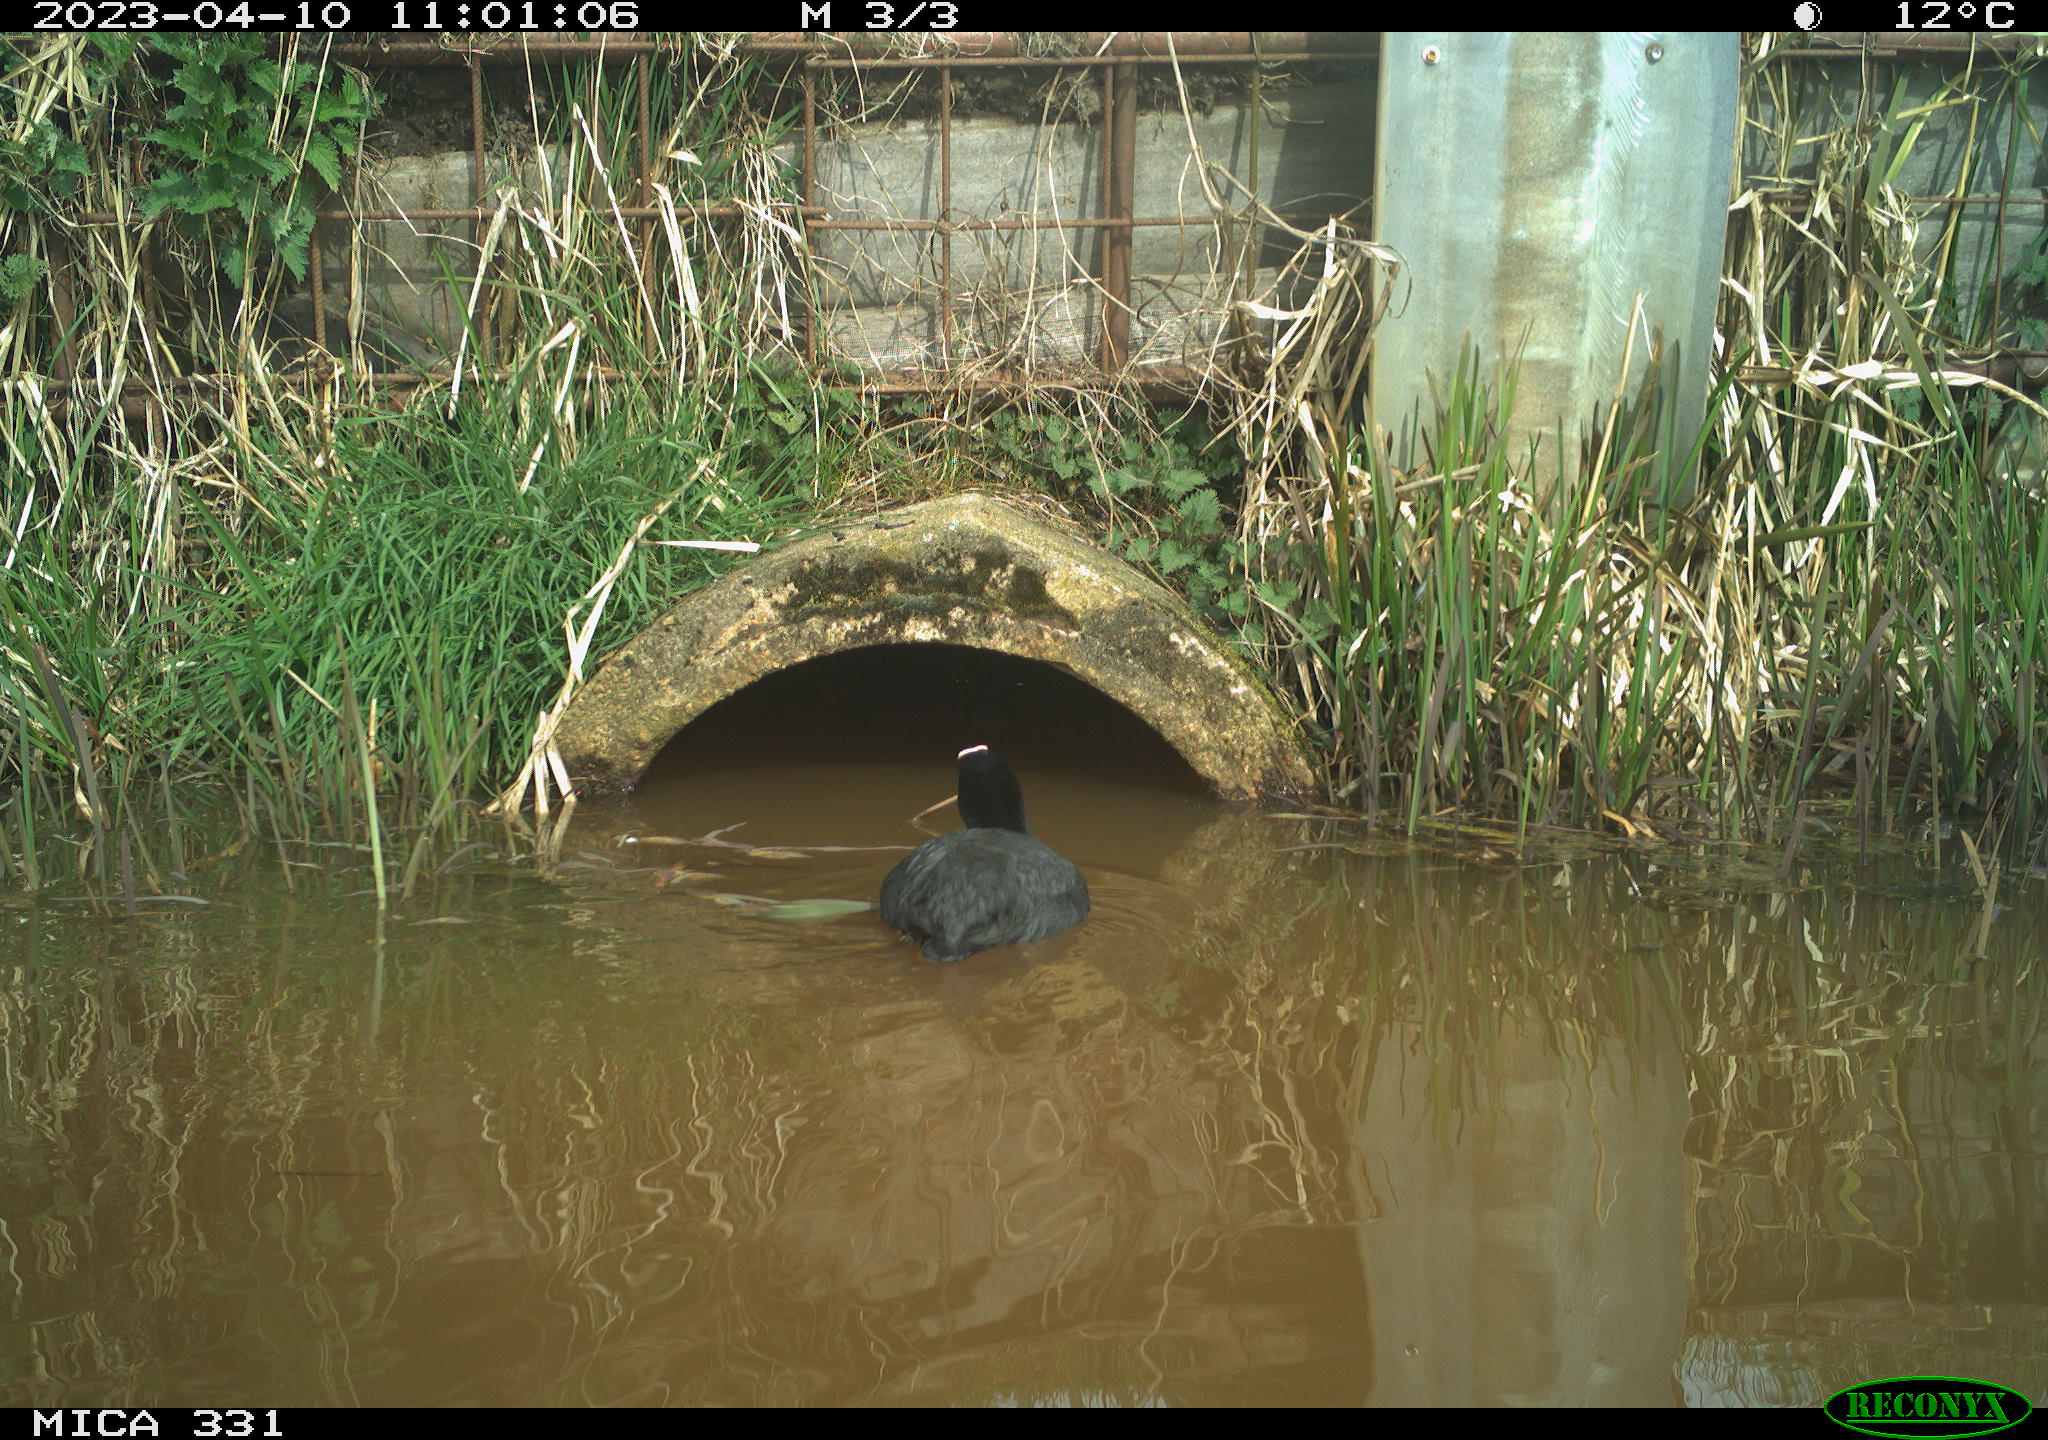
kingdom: Animalia
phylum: Chordata
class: Aves
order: Gruiformes
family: Rallidae
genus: Fulica
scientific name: Fulica atra
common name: Eurasian coot
